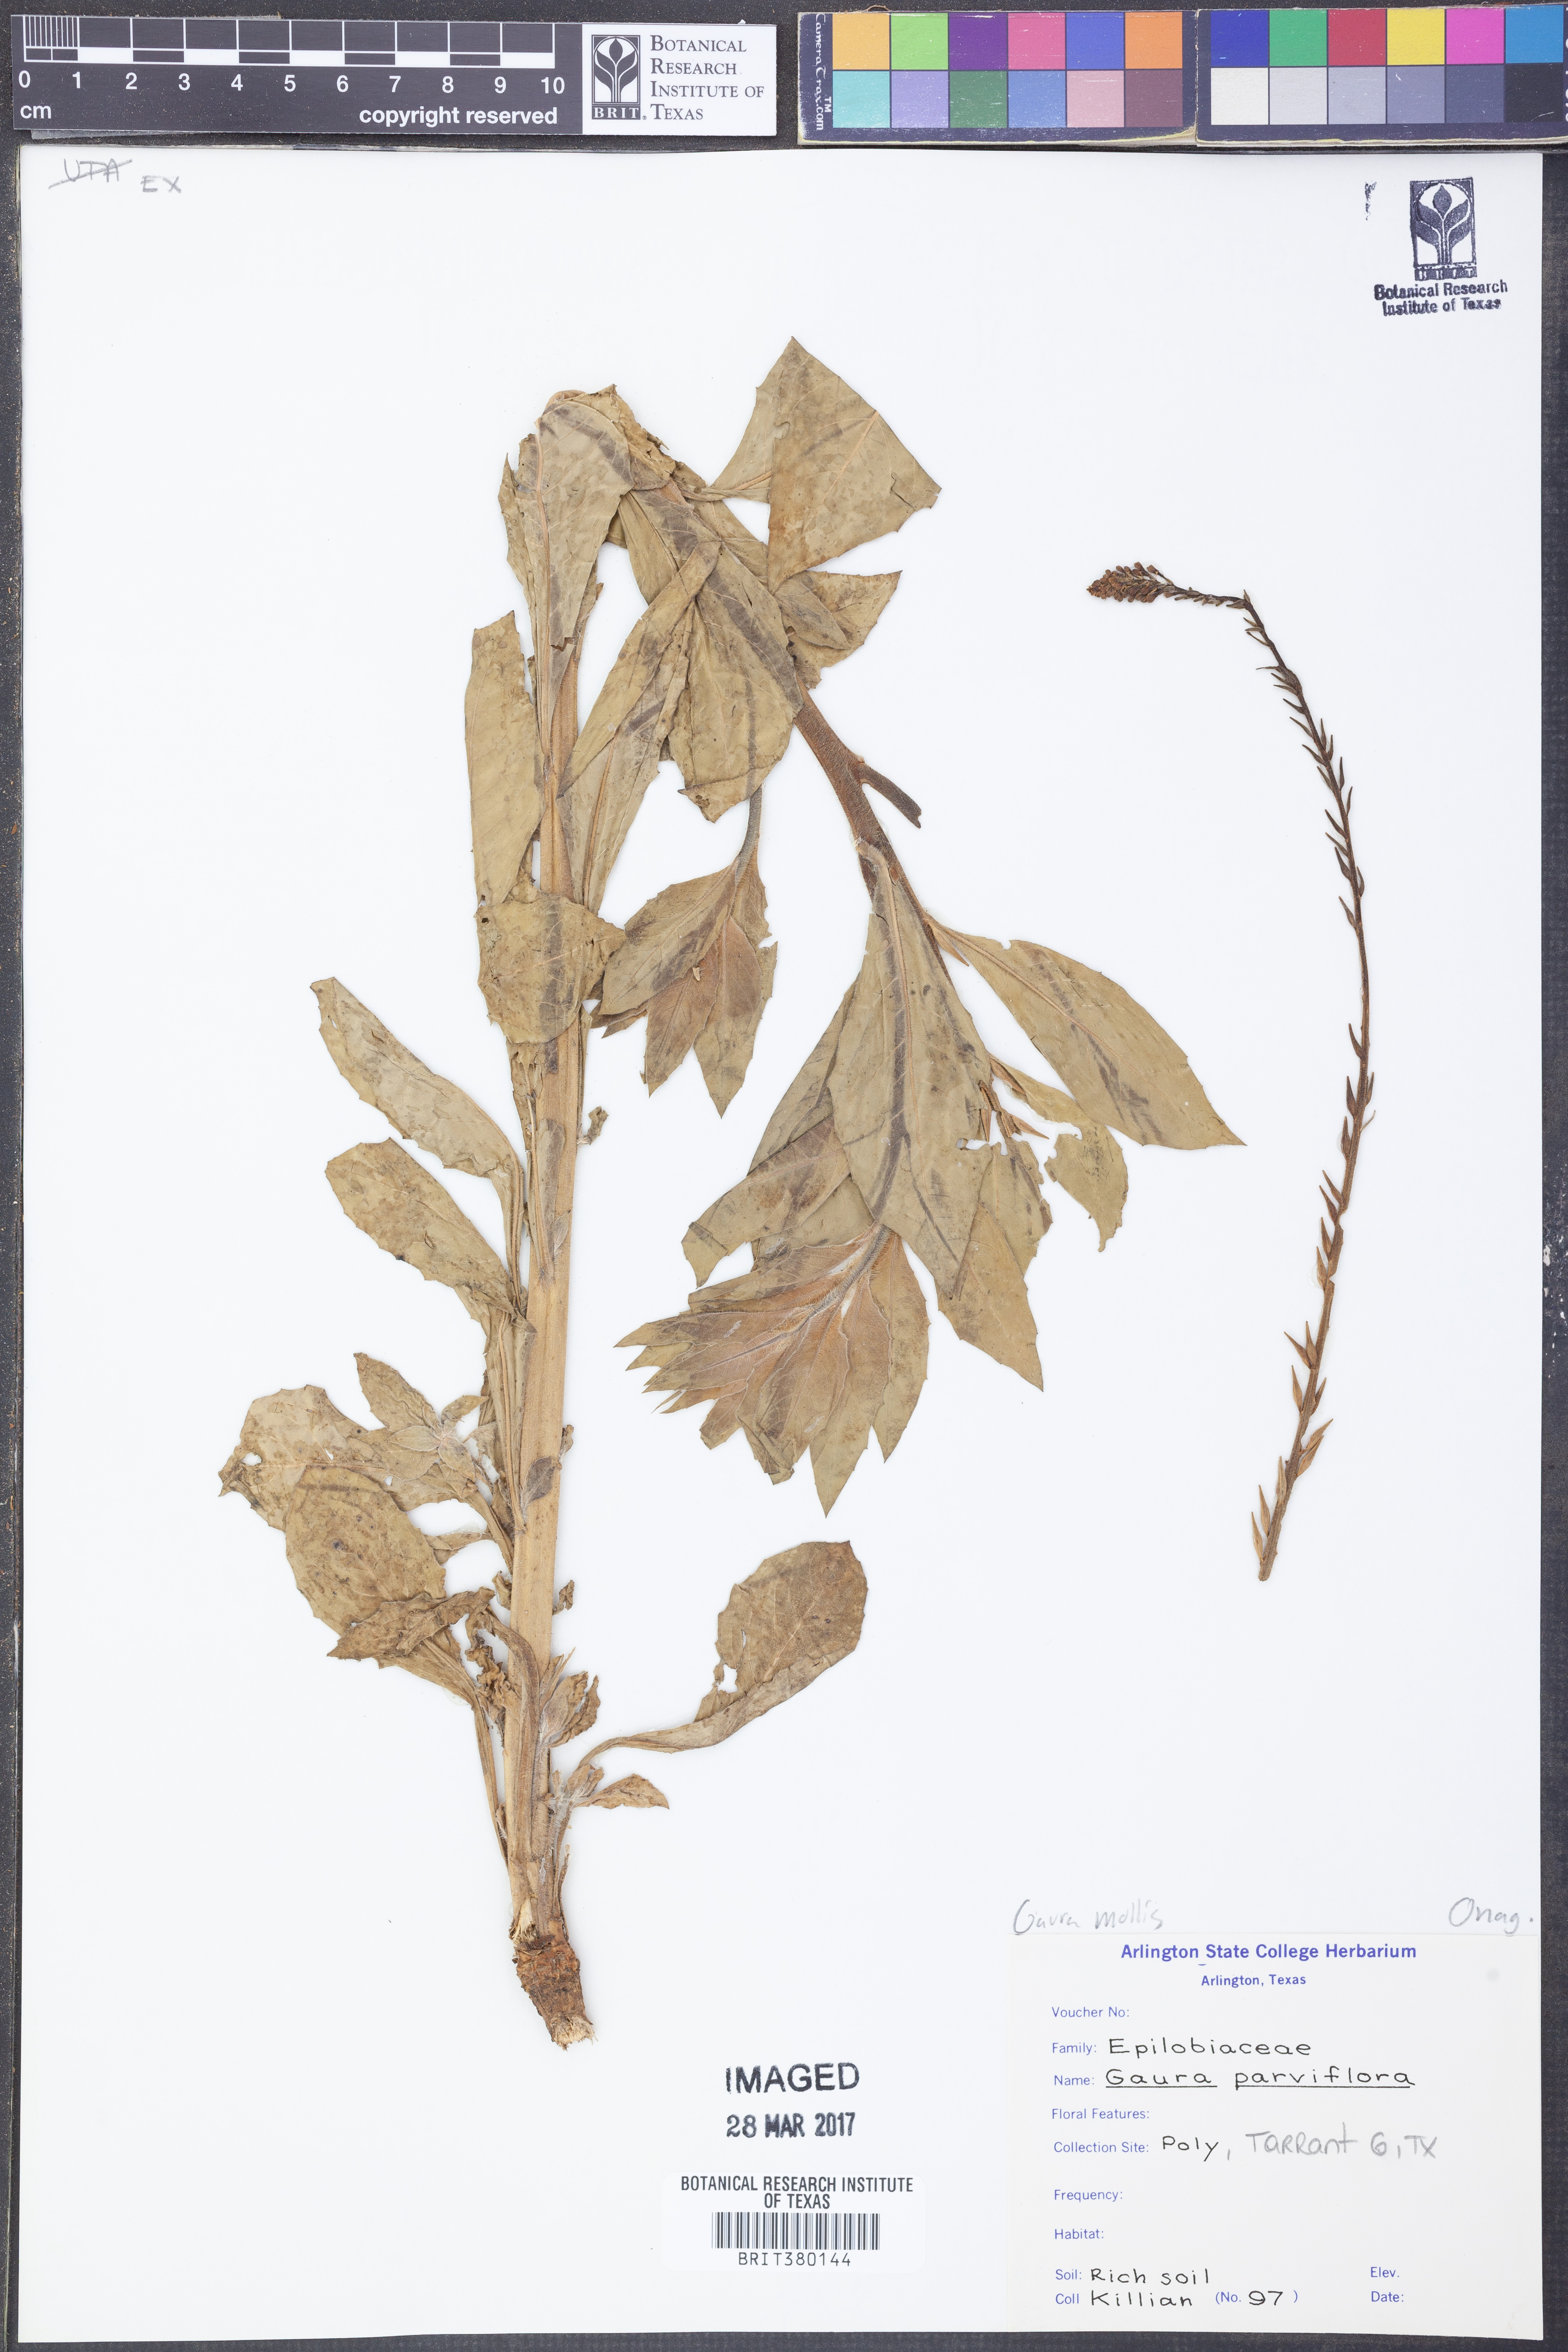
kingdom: Plantae
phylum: Tracheophyta
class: Magnoliopsida
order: Myrtales
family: Onagraceae
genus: Oenothera
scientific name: Oenothera curtiflora
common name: Velvetweed
